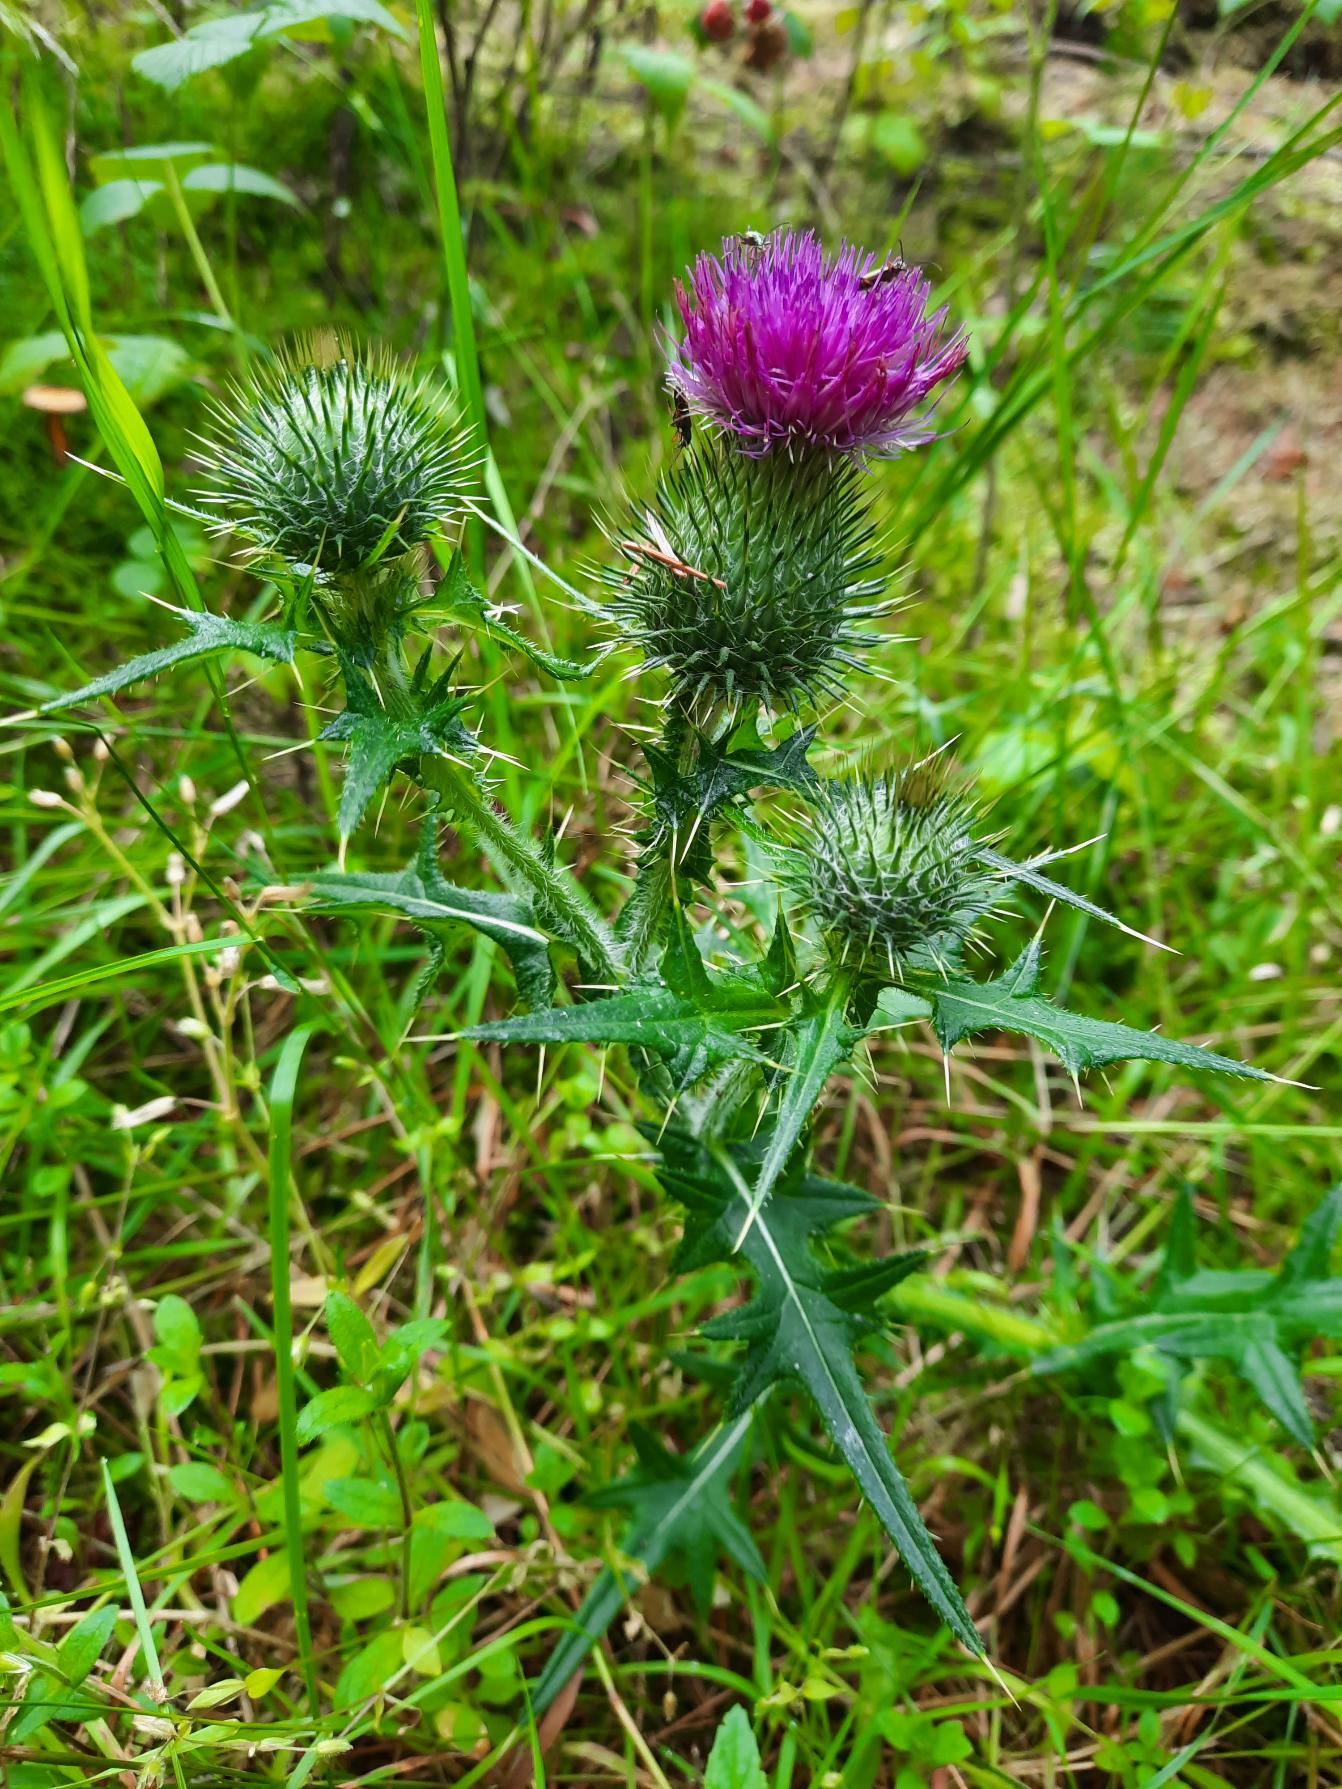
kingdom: Plantae
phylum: Tracheophyta
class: Magnoliopsida
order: Asterales
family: Asteraceae
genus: Cirsium
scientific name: Cirsium vulgare
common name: Horse-tidsel
